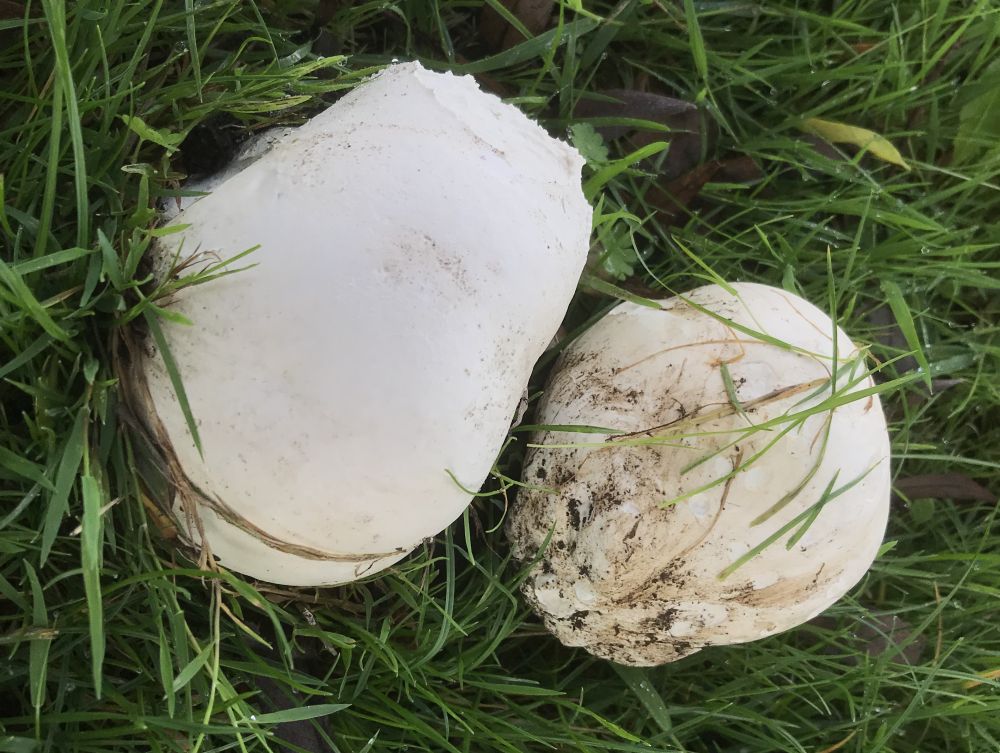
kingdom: Fungi
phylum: Basidiomycota
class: Agaricomycetes
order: Agaricales
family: Lycoperdaceae
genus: Calvatia
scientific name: Calvatia gigantea
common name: kæmpestøvbold
